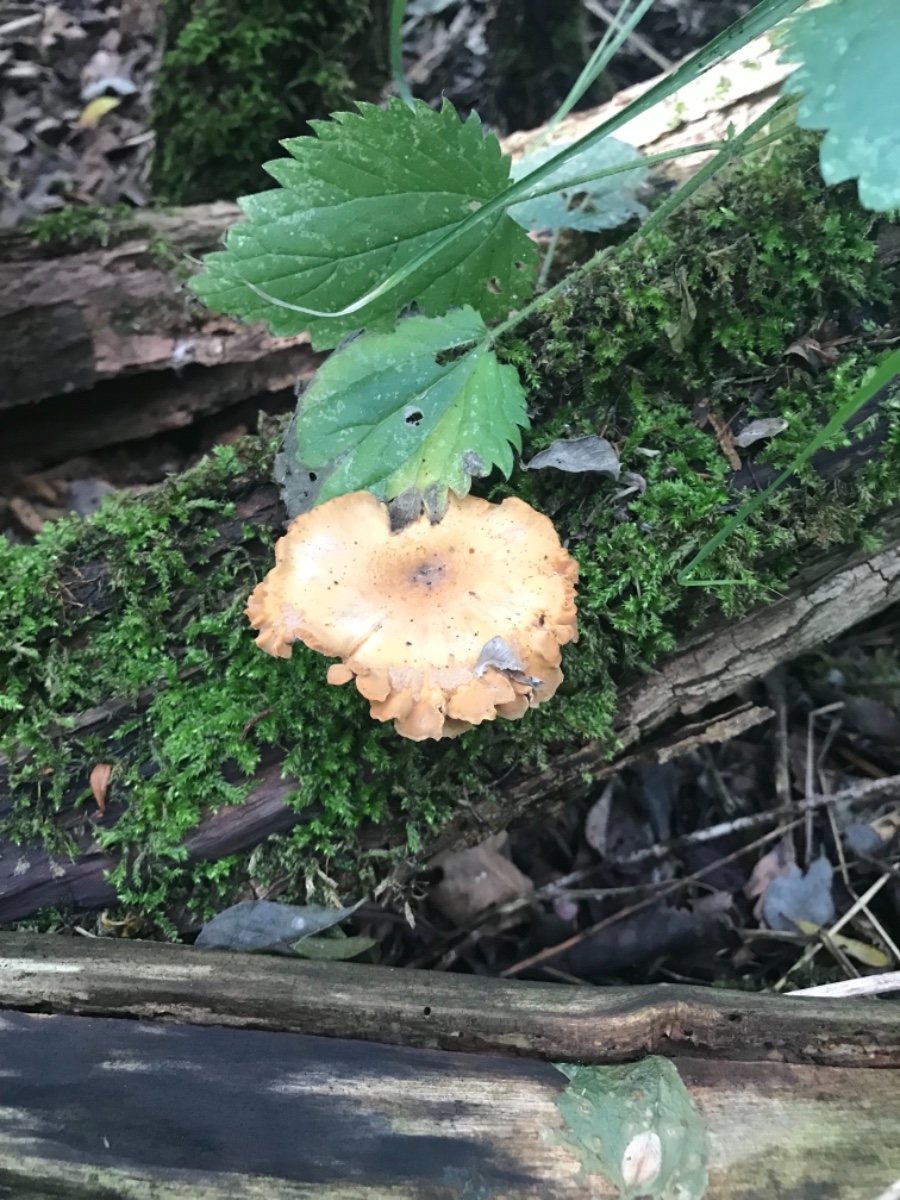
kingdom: Fungi
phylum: Basidiomycota
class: Agaricomycetes
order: Polyporales
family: Polyporaceae
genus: Cerioporus
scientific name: Cerioporus varius
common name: foranderlig stilkporesvamp
